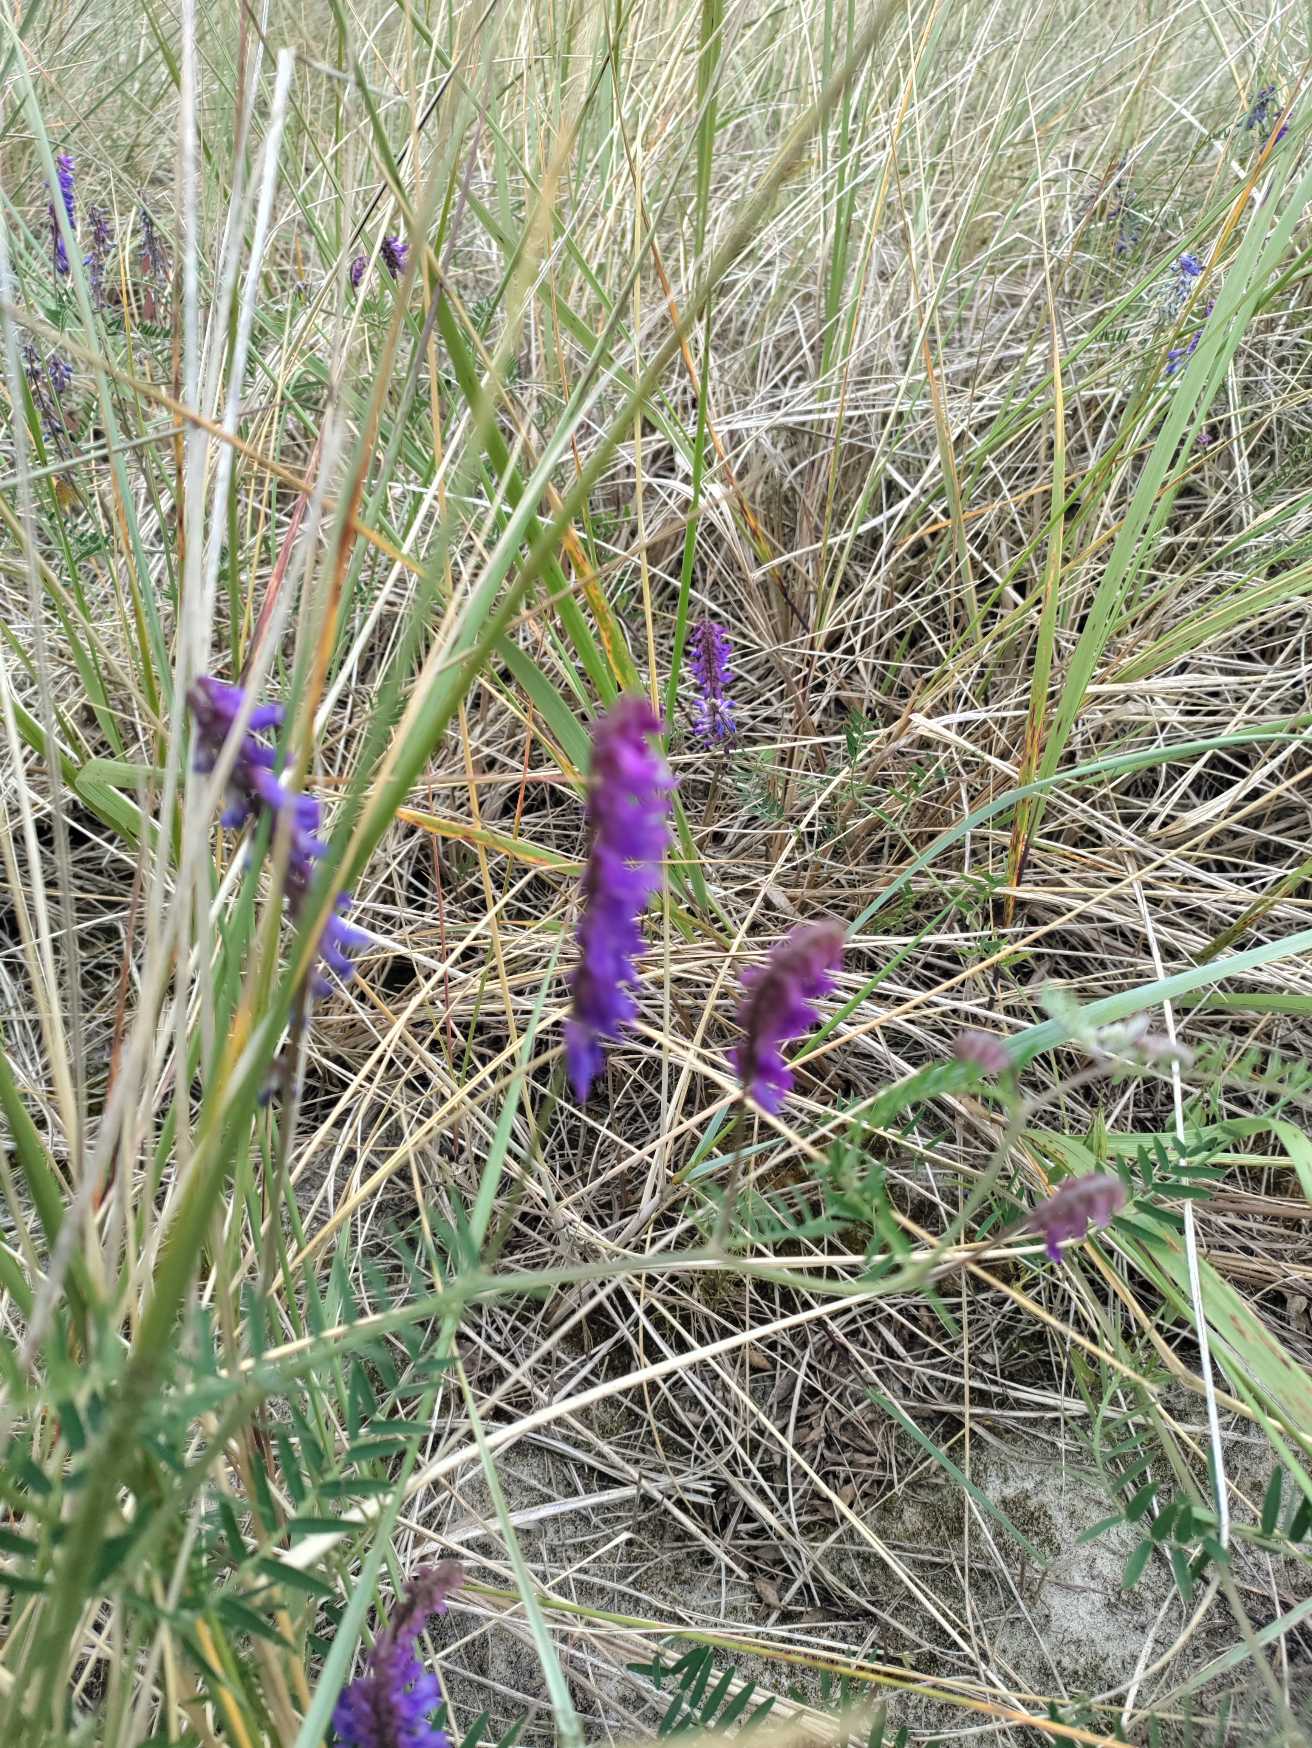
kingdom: Plantae
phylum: Tracheophyta
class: Magnoliopsida
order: Fabales
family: Fabaceae
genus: Vicia
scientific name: Vicia cracca
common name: Muse-vikke
